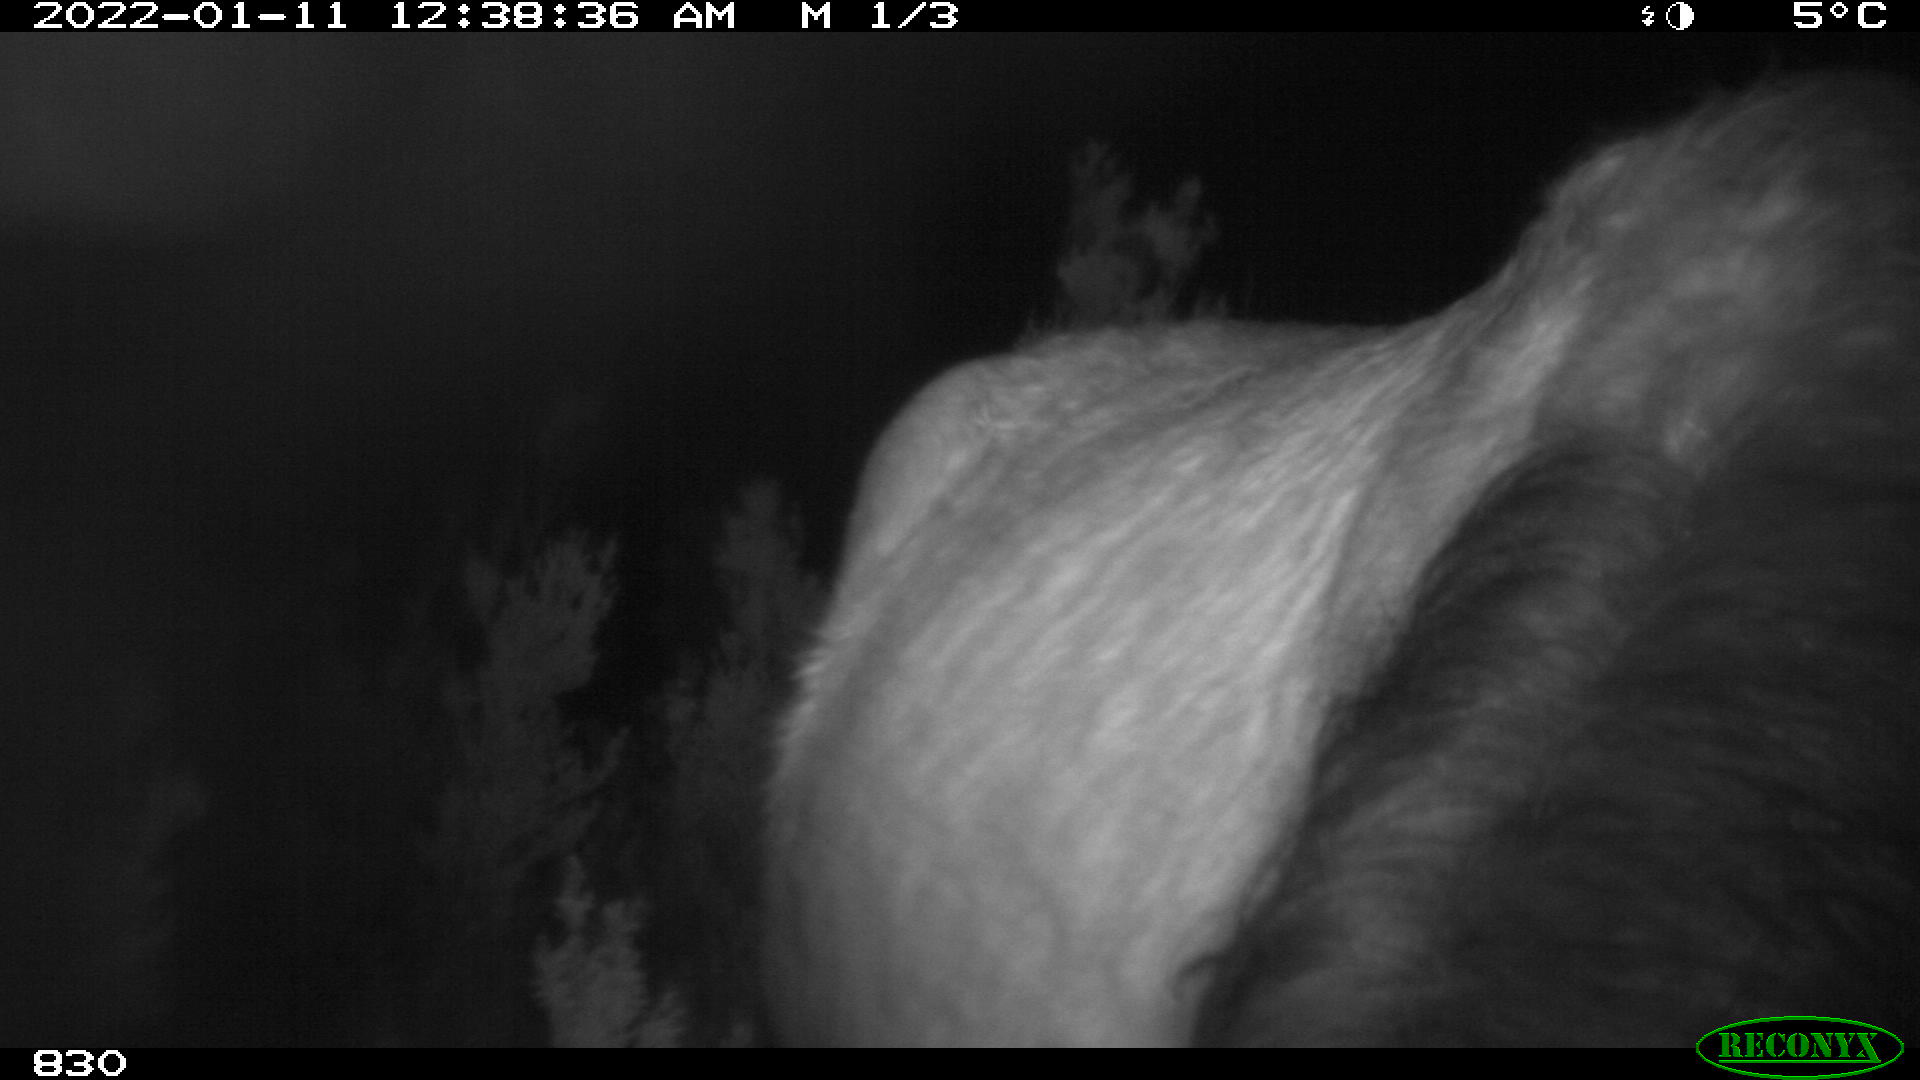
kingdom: Animalia
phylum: Chordata
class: Mammalia
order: Perissodactyla
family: Equidae
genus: Equus
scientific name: Equus caballus
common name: Horse
